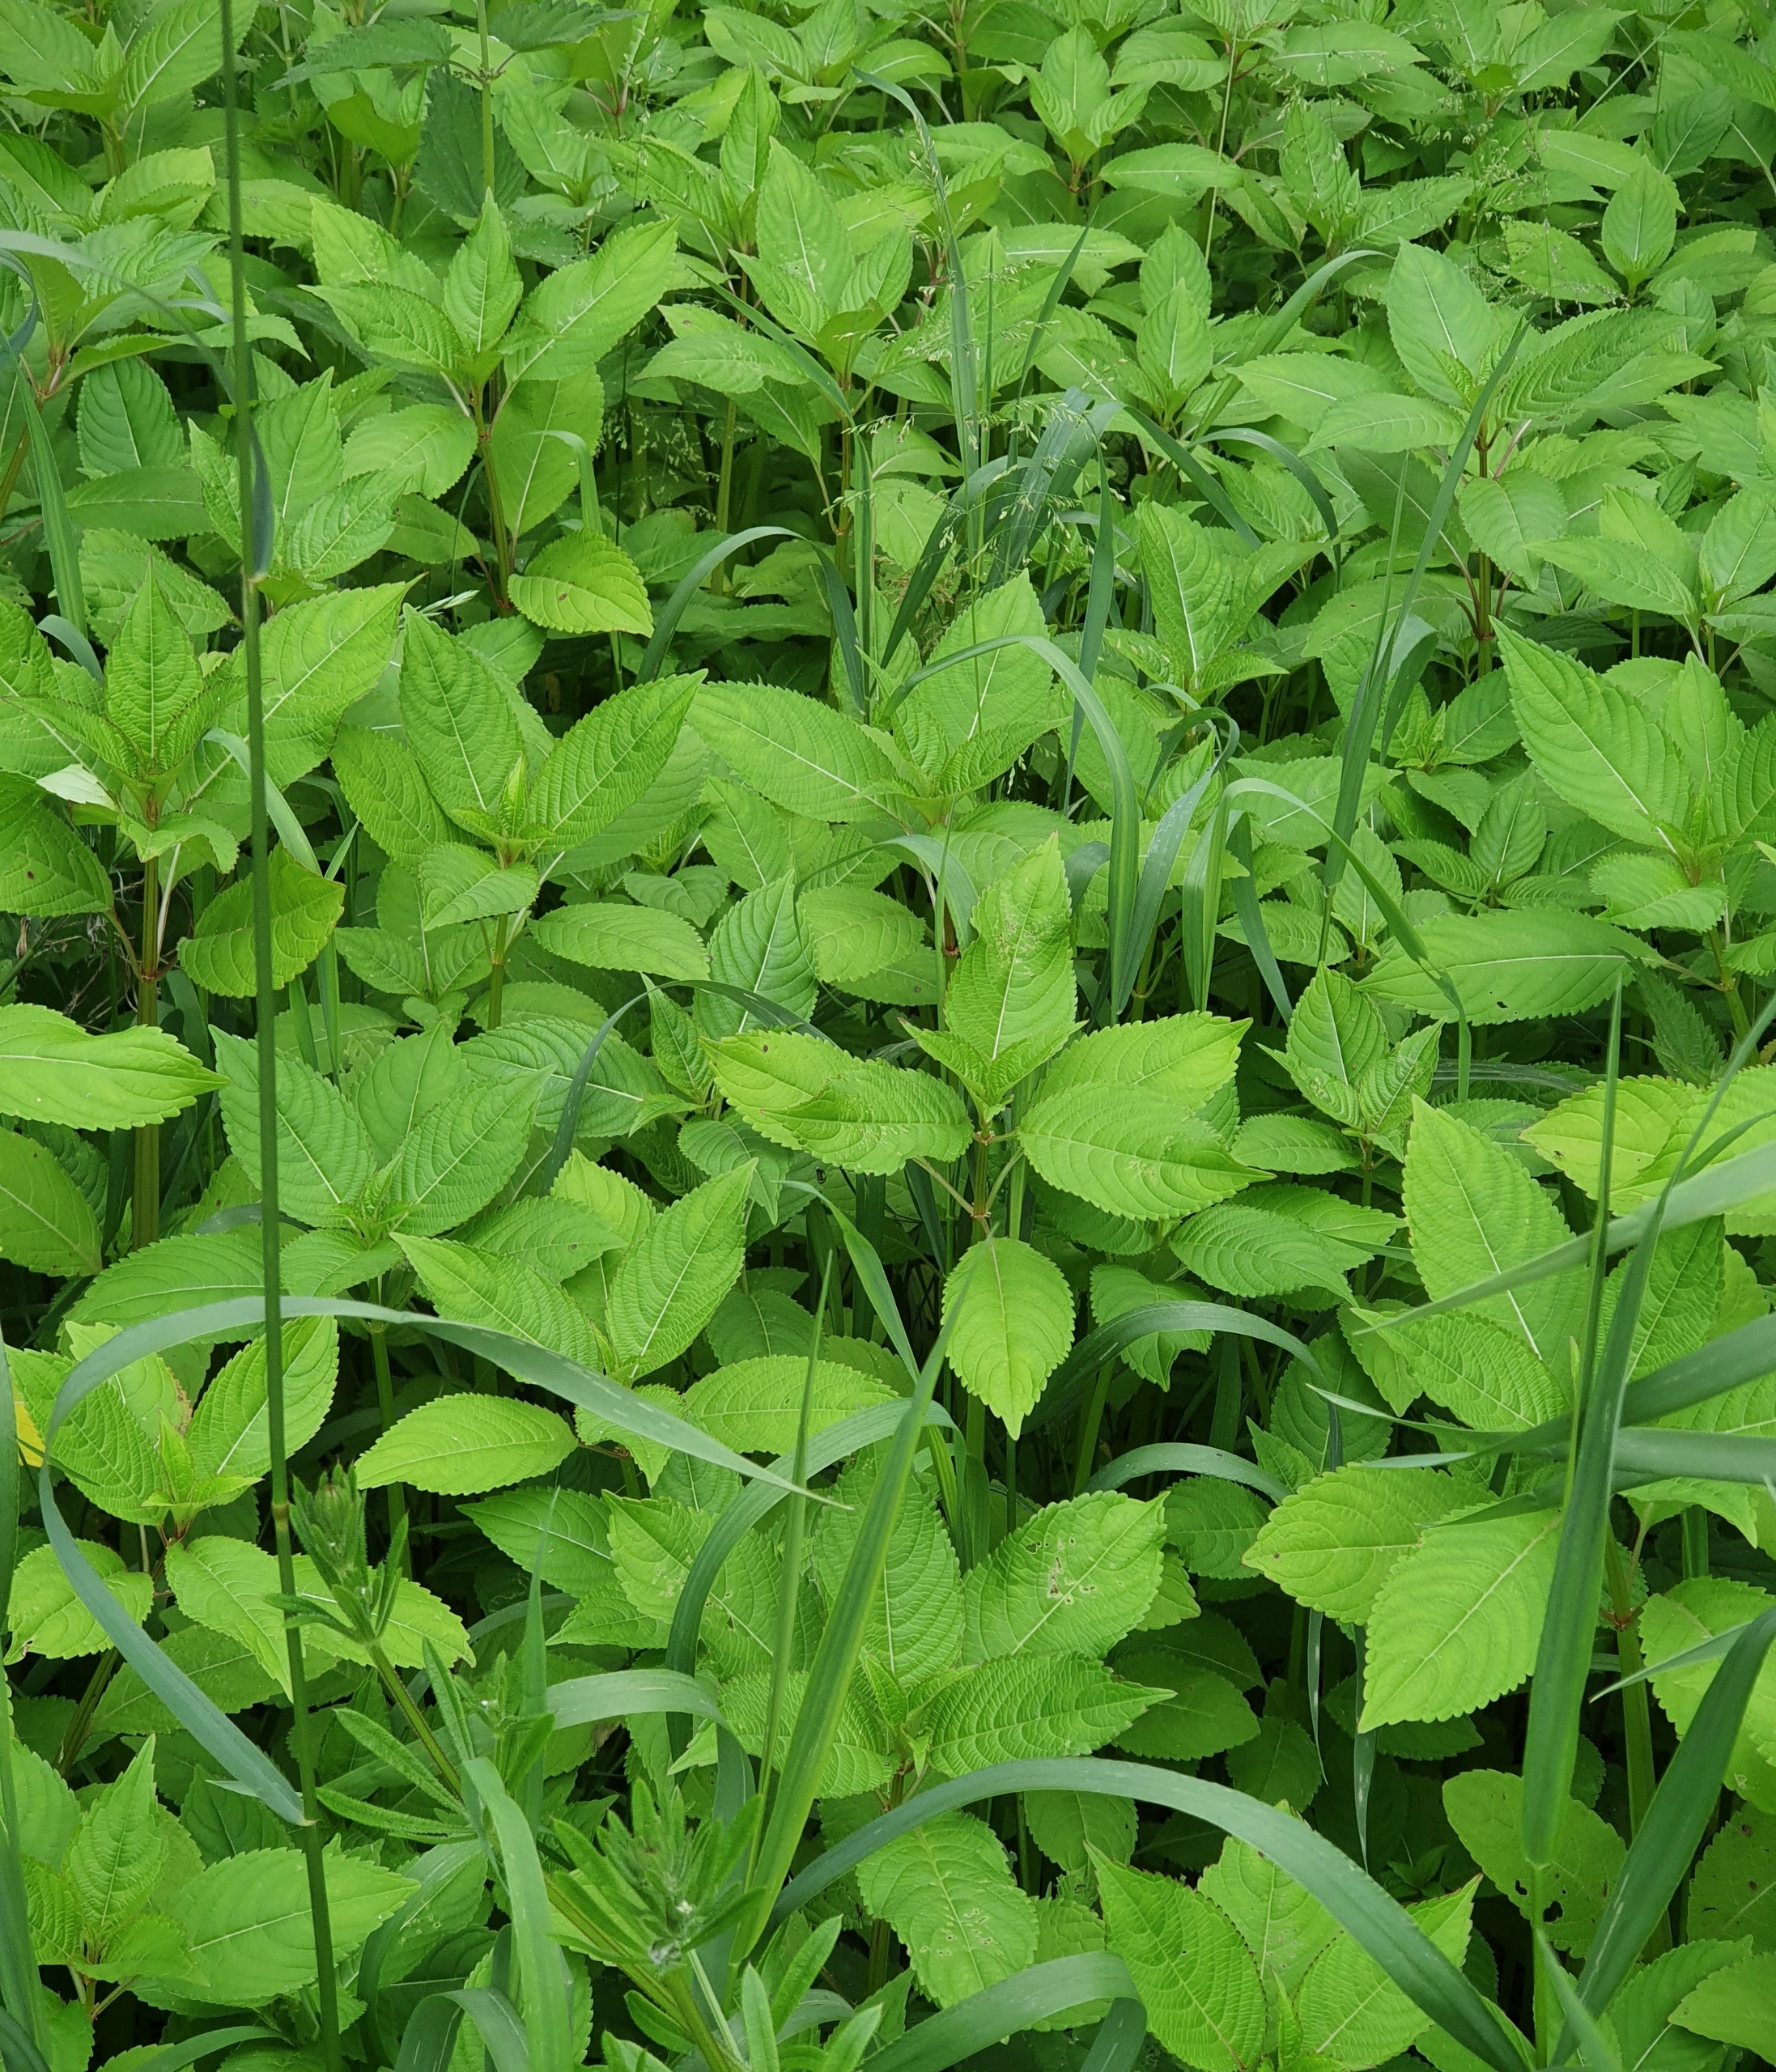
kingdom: Plantae
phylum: Tracheophyta
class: Magnoliopsida
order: Ericales
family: Balsaminaceae
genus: Impatiens
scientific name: Impatiens glandulifera
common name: Kæmpe-balsamin
